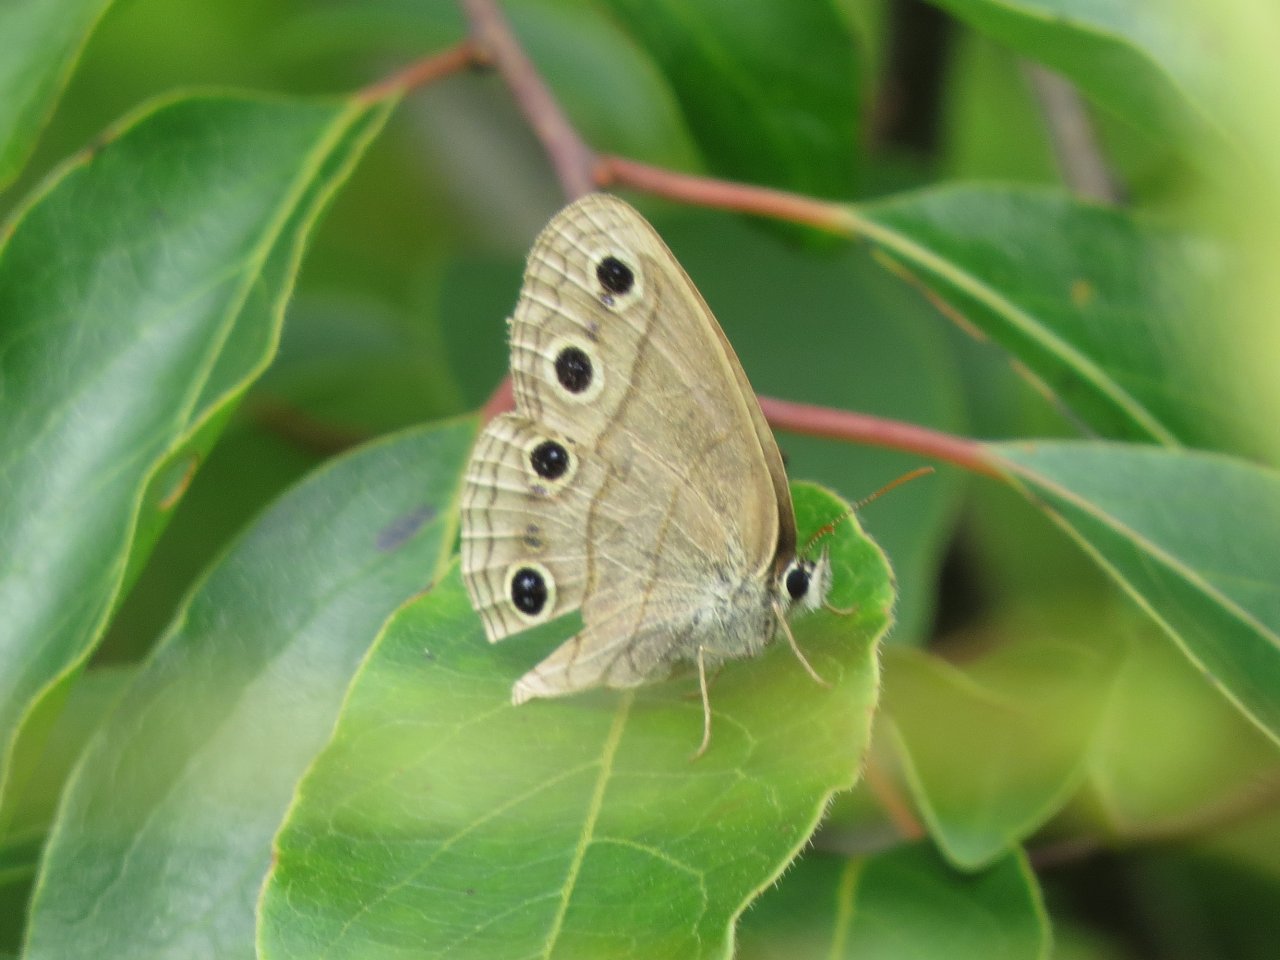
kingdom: Animalia
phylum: Arthropoda
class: Insecta
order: Lepidoptera
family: Nymphalidae
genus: Euptychia
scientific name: Euptychia cymela
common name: Little Wood Satyr
